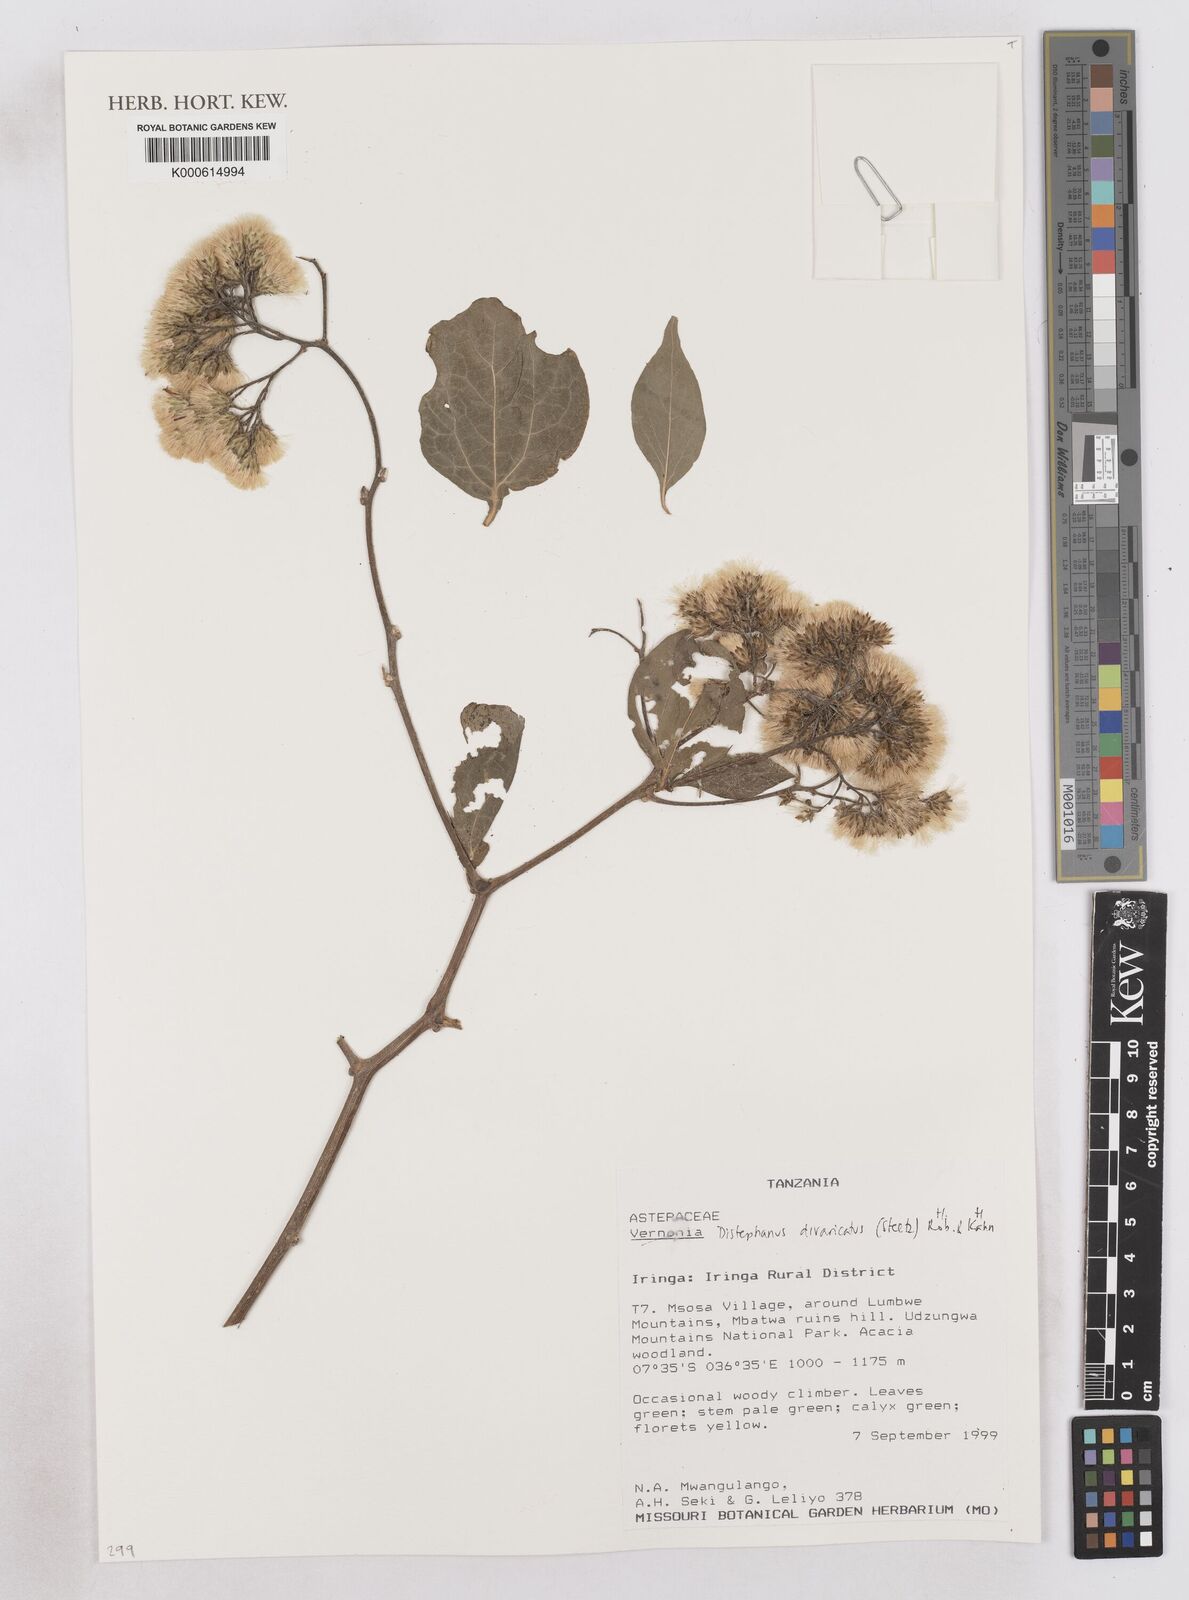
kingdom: Plantae
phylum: Tracheophyta
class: Magnoliopsida
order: Asterales
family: Asteraceae
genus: Distephanus
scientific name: Distephanus divaricatus
